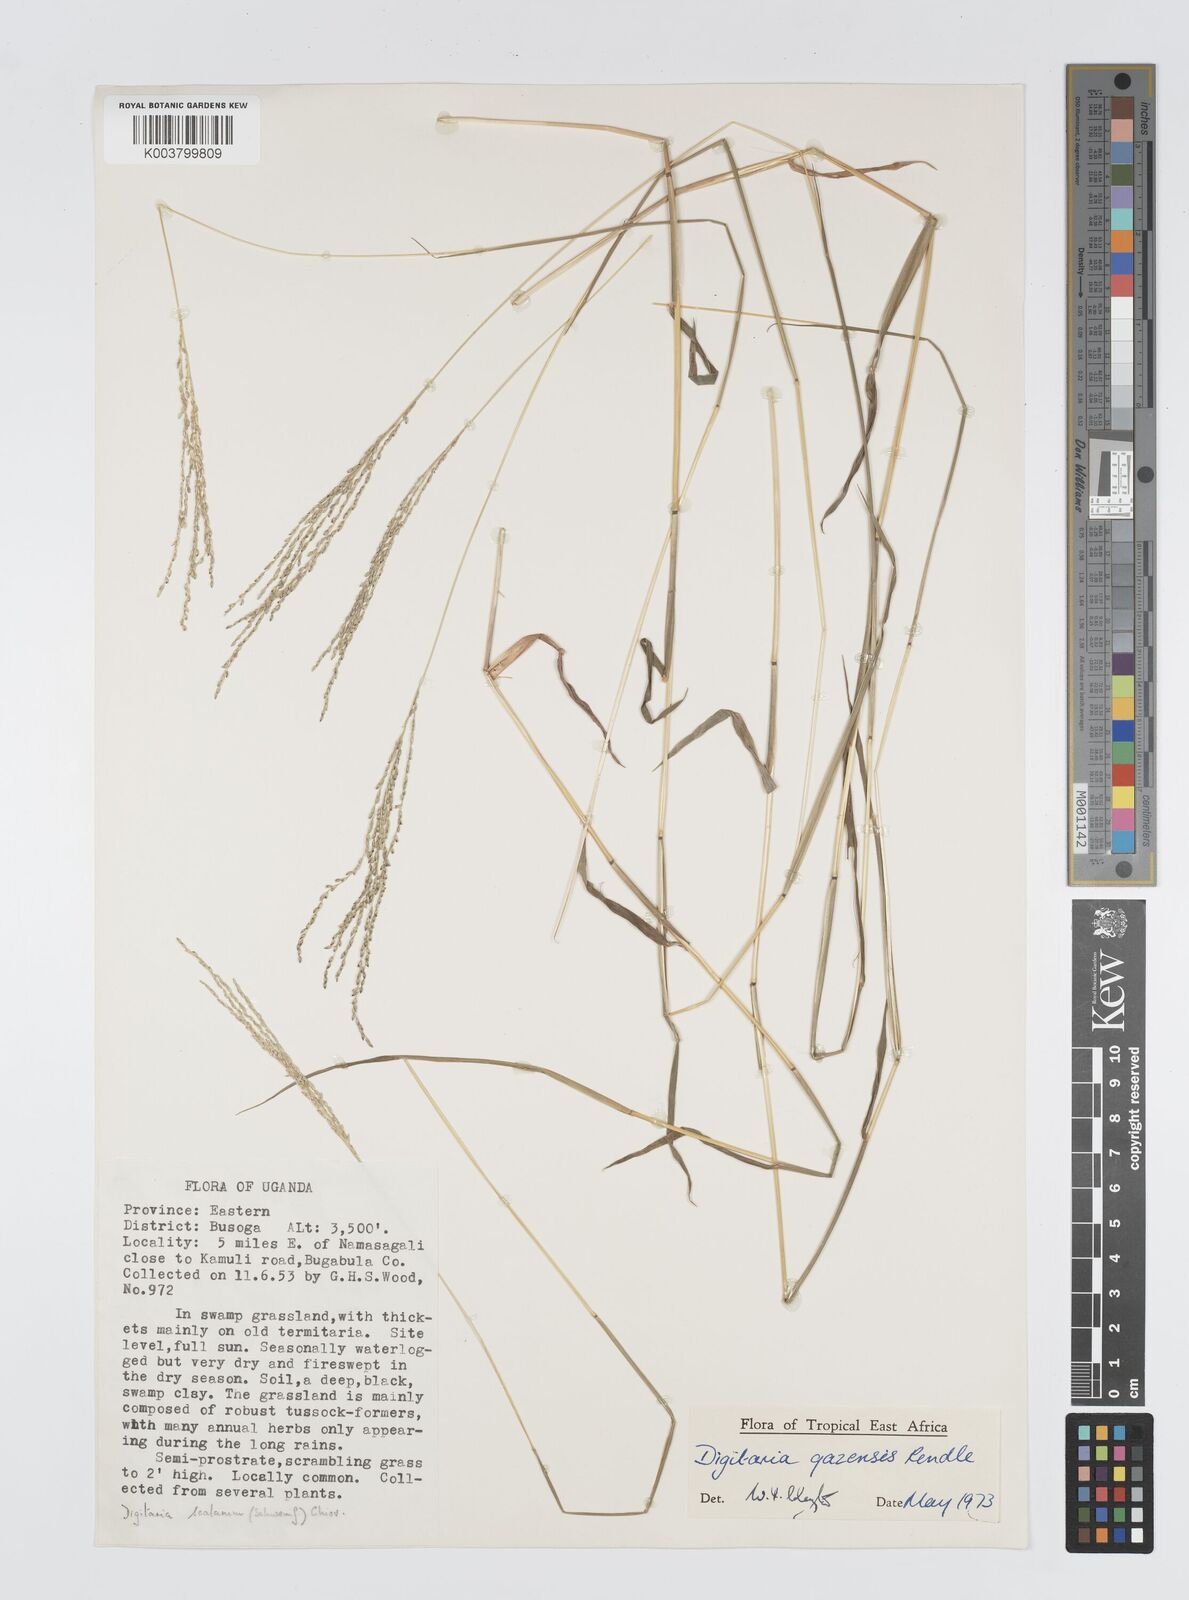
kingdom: Plantae
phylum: Tracheophyta
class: Liliopsida
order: Poales
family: Poaceae
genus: Digitaria
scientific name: Digitaria gazensis
